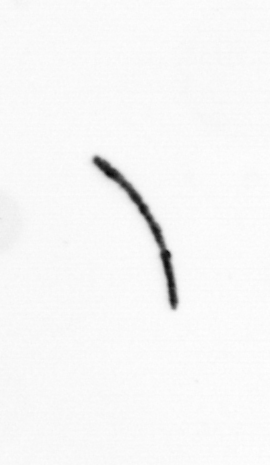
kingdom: Bacteria
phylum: Cyanobacteria
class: Cyanobacteriia
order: Cyanobacteriales
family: Microcoleaceae
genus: Trichodesmium
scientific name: Trichodesmium
